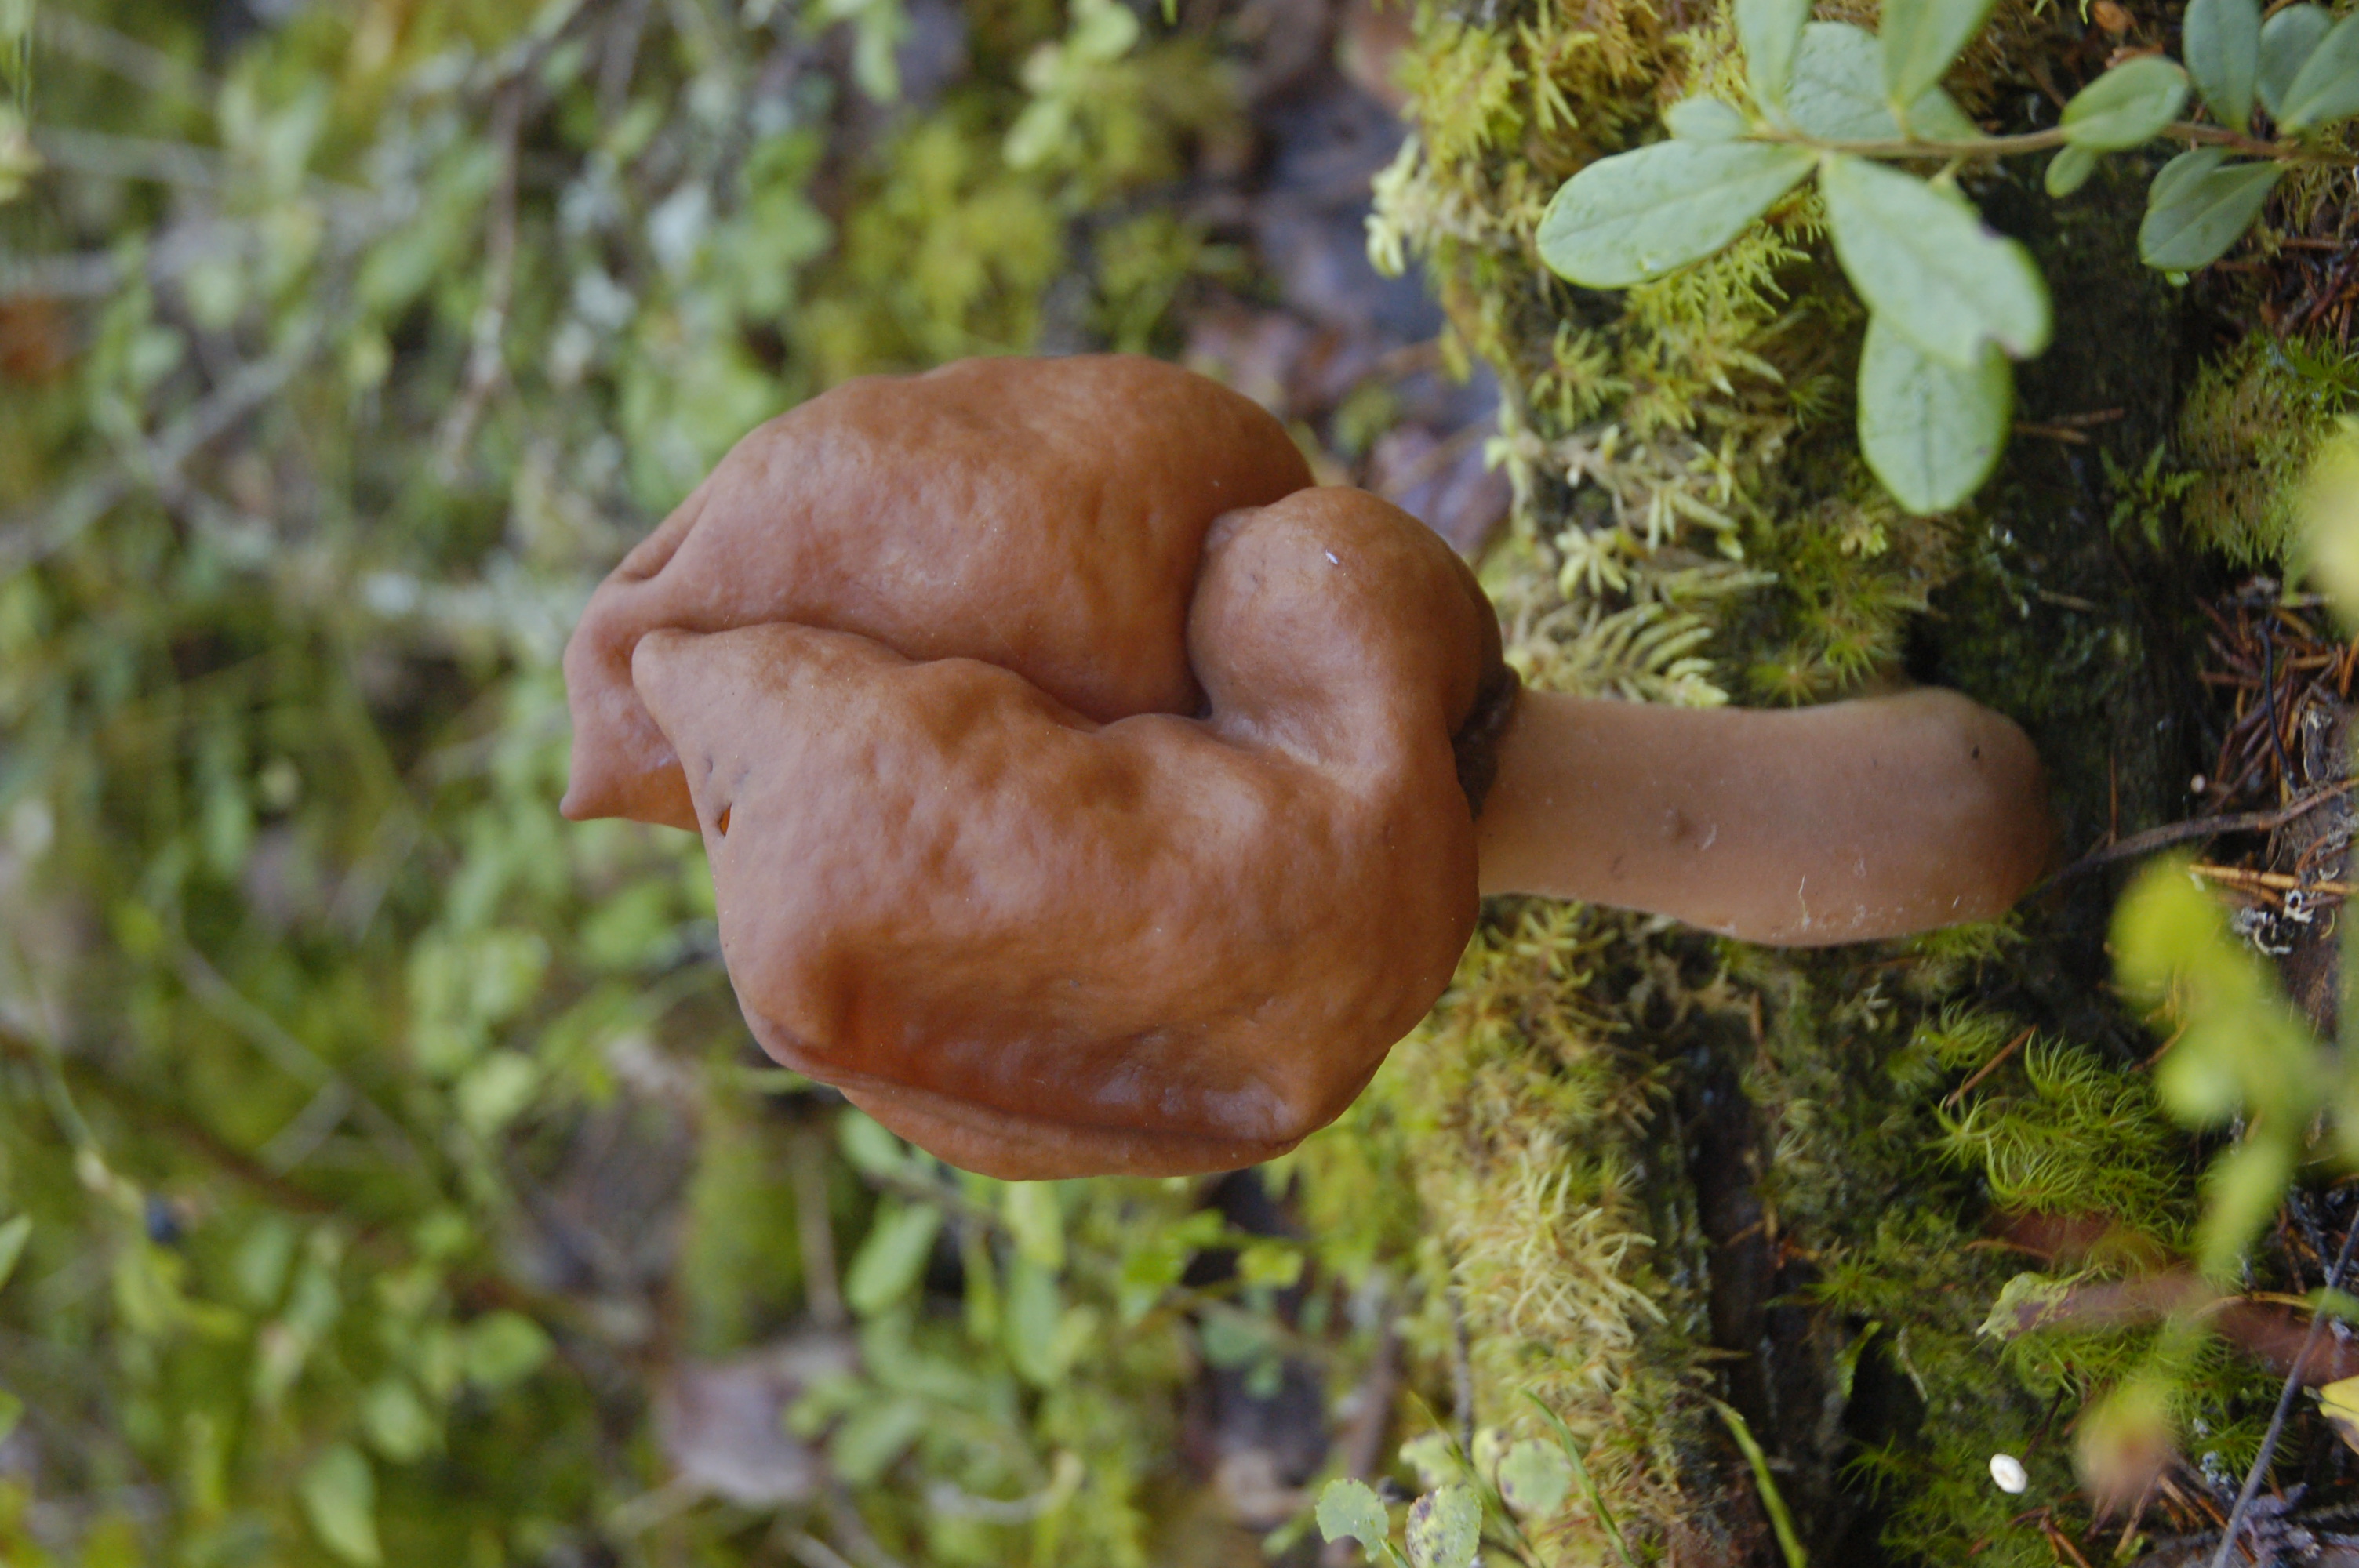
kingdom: Fungi
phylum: Ascomycota
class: Pezizomycetes
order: Pezizales
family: Discinaceae
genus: Gyromitra
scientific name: Gyromitra infula
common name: Pouched false morel
